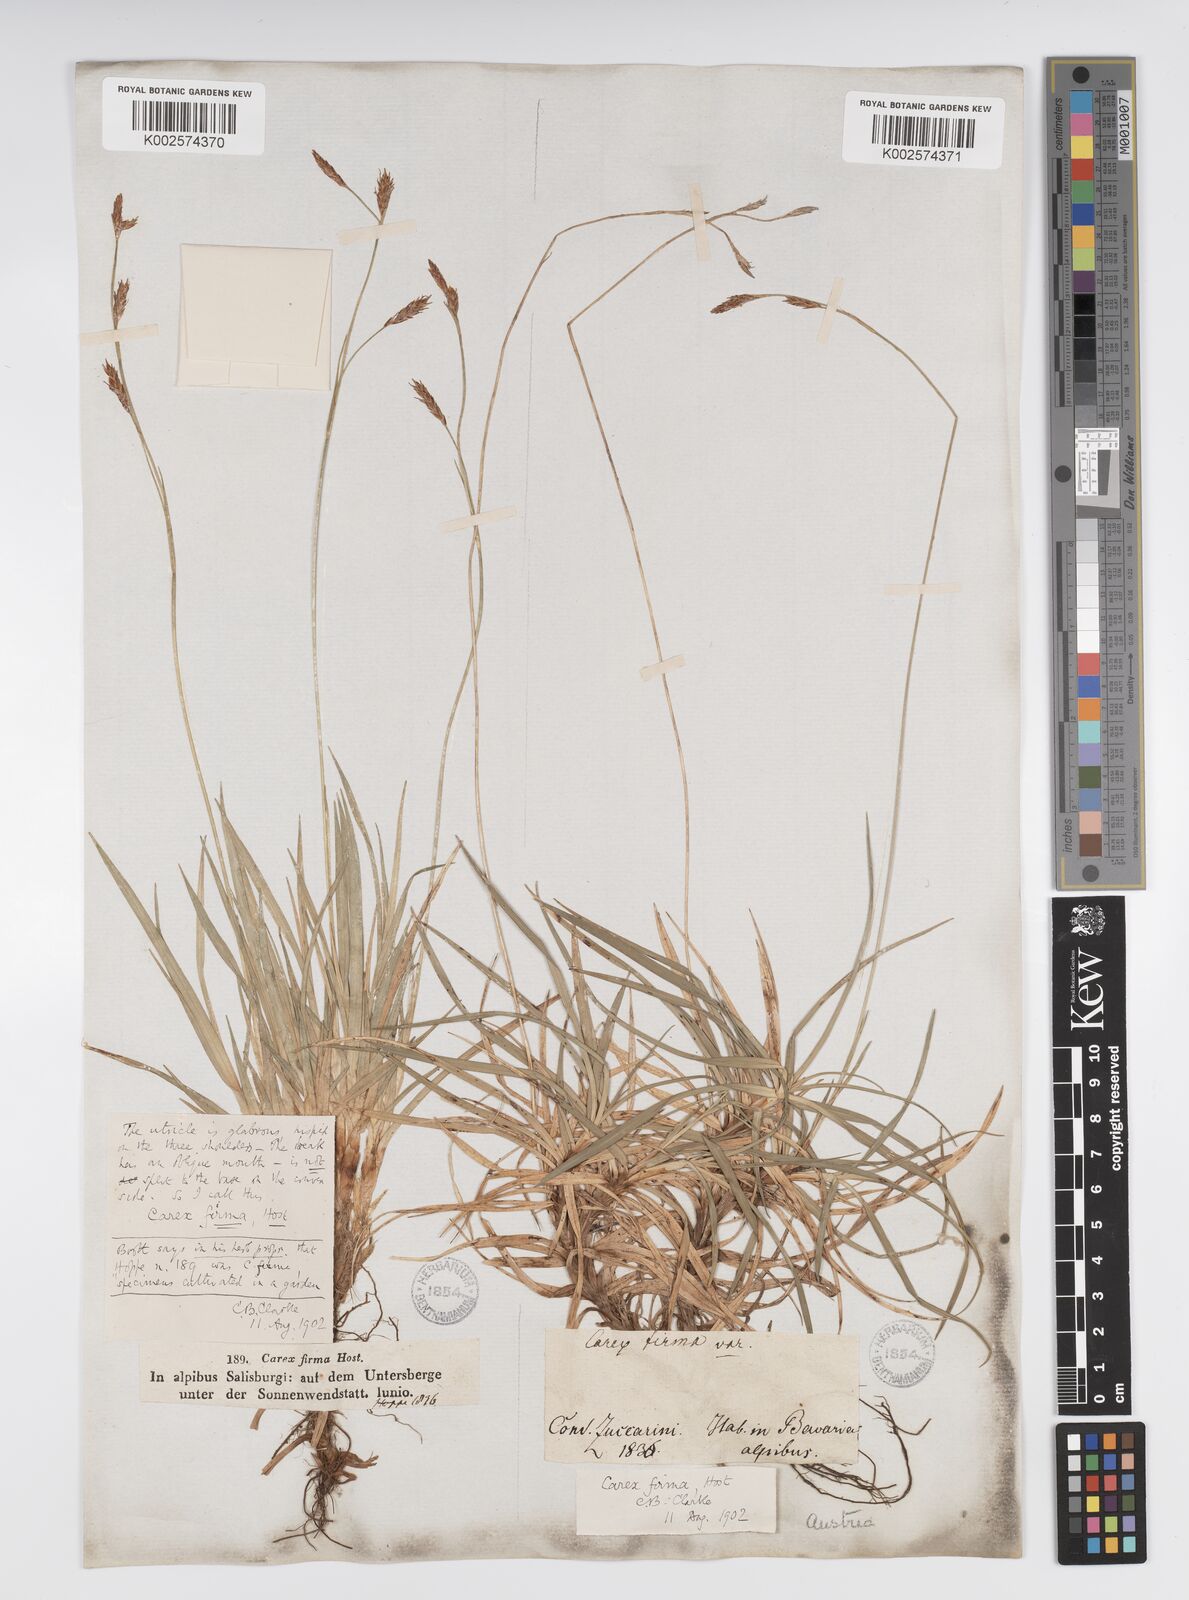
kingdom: Plantae
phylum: Tracheophyta
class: Liliopsida
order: Poales
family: Cyperaceae
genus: Carex
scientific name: Carex firma
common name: Dwarf pillow sedge
